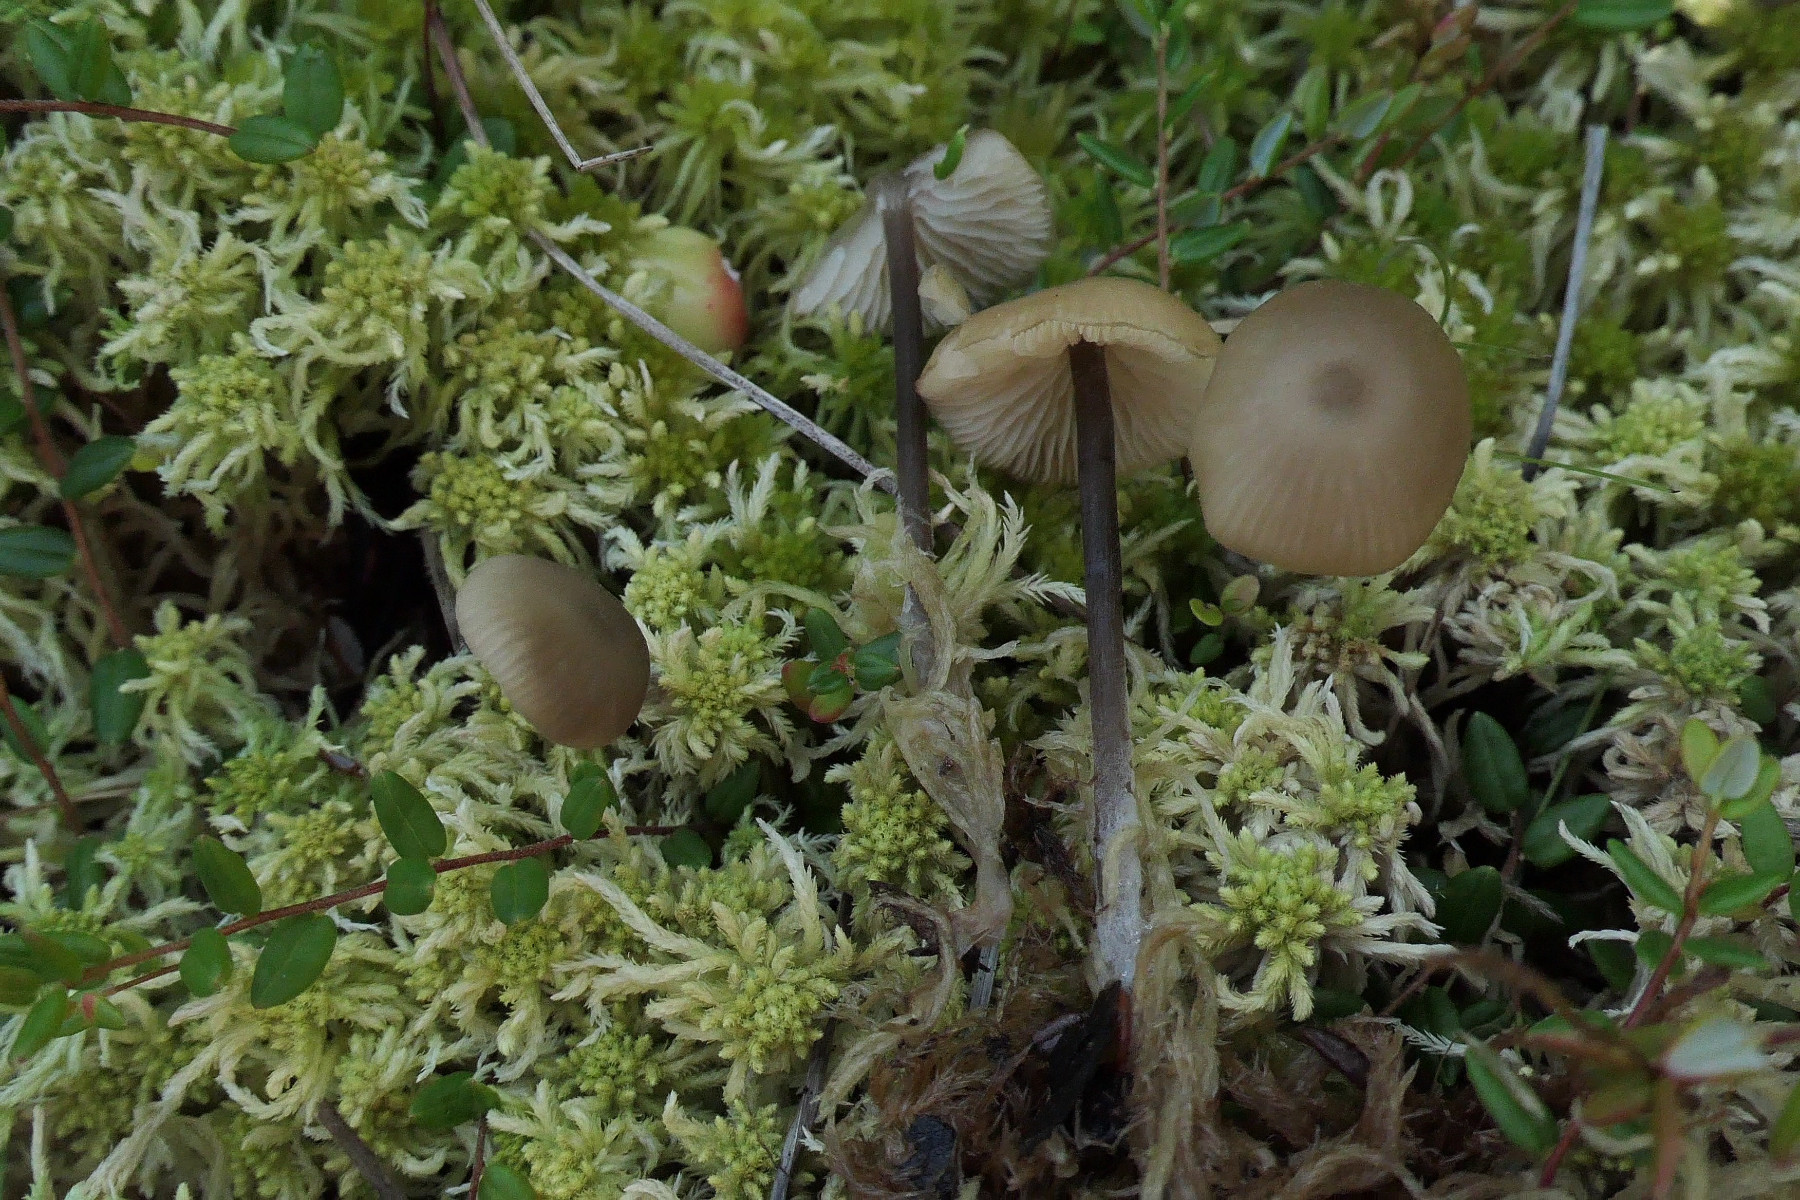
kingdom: Fungi
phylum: Basidiomycota
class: Agaricomycetes
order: Agaricales
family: Lyophyllaceae
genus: Sphagnurus
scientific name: Sphagnurus paluster
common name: tørvemos-gråblad
